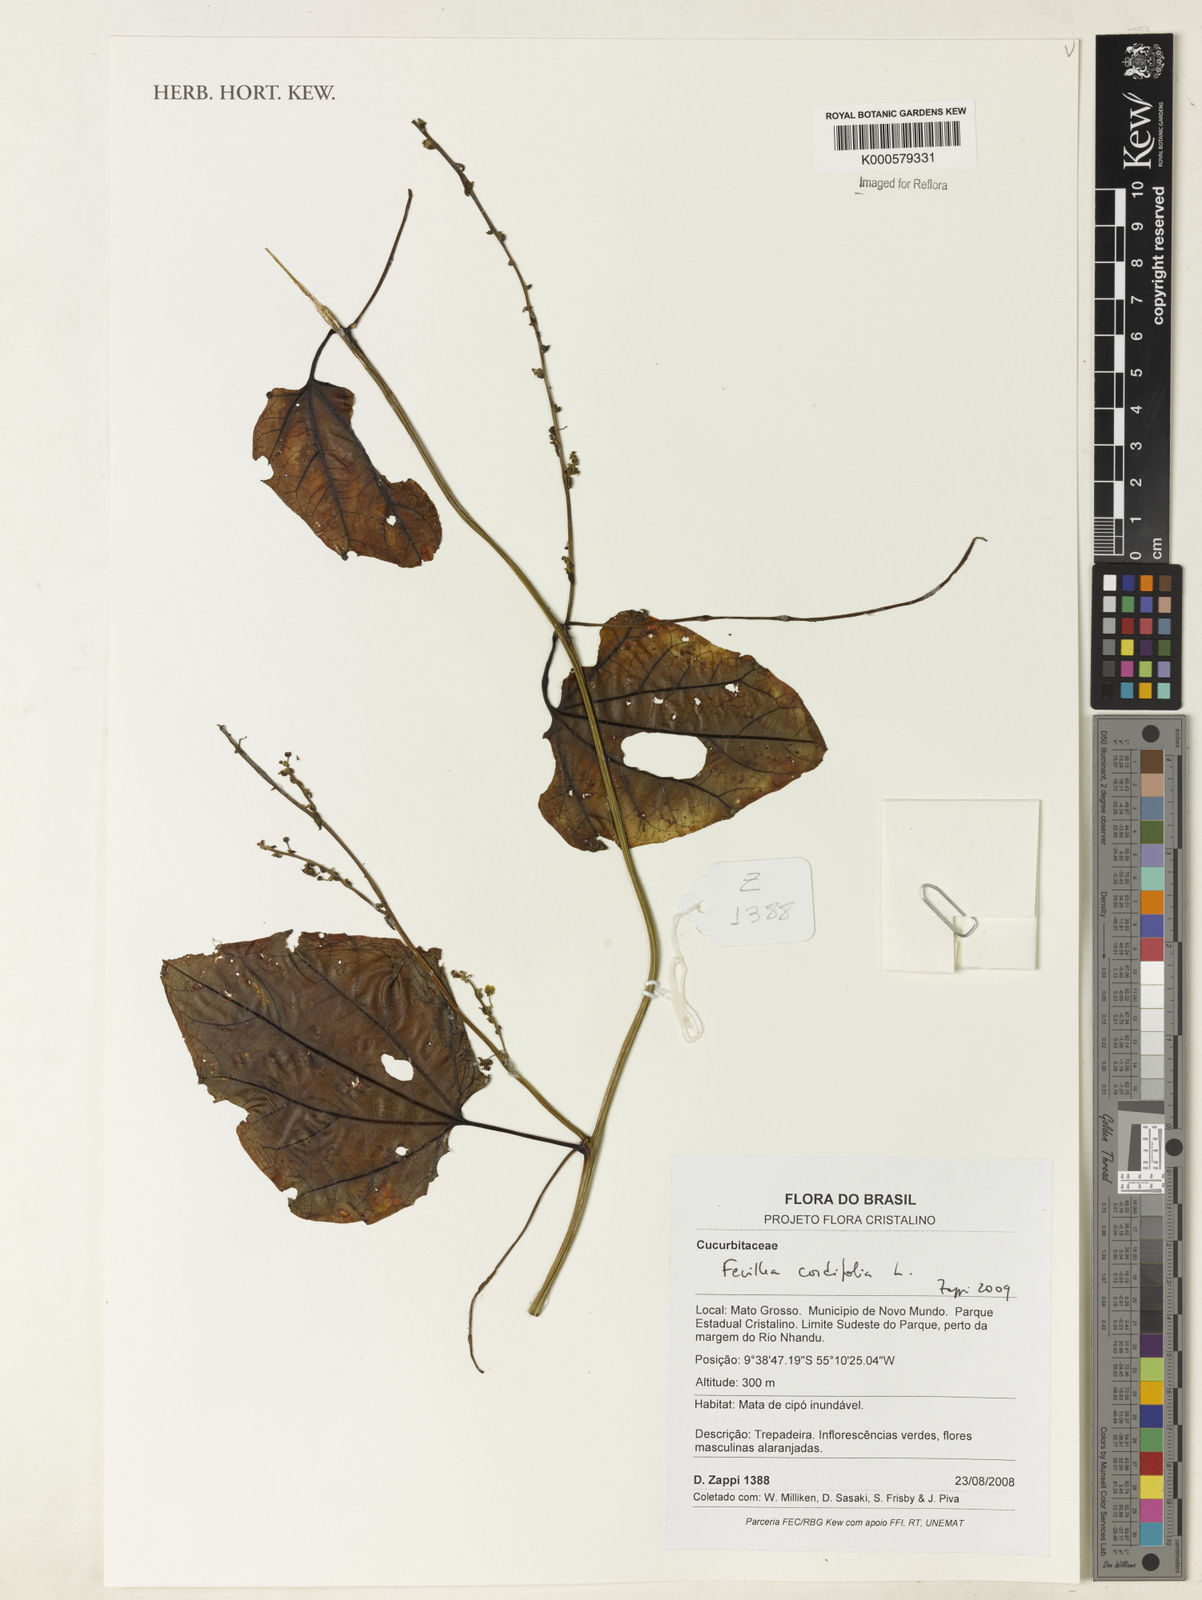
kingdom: Plantae
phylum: Tracheophyta
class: Magnoliopsida
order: Cucurbitales
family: Cucurbitaceae
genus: Fevillea
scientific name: Fevillea cordifolia
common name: Antidote-vine
